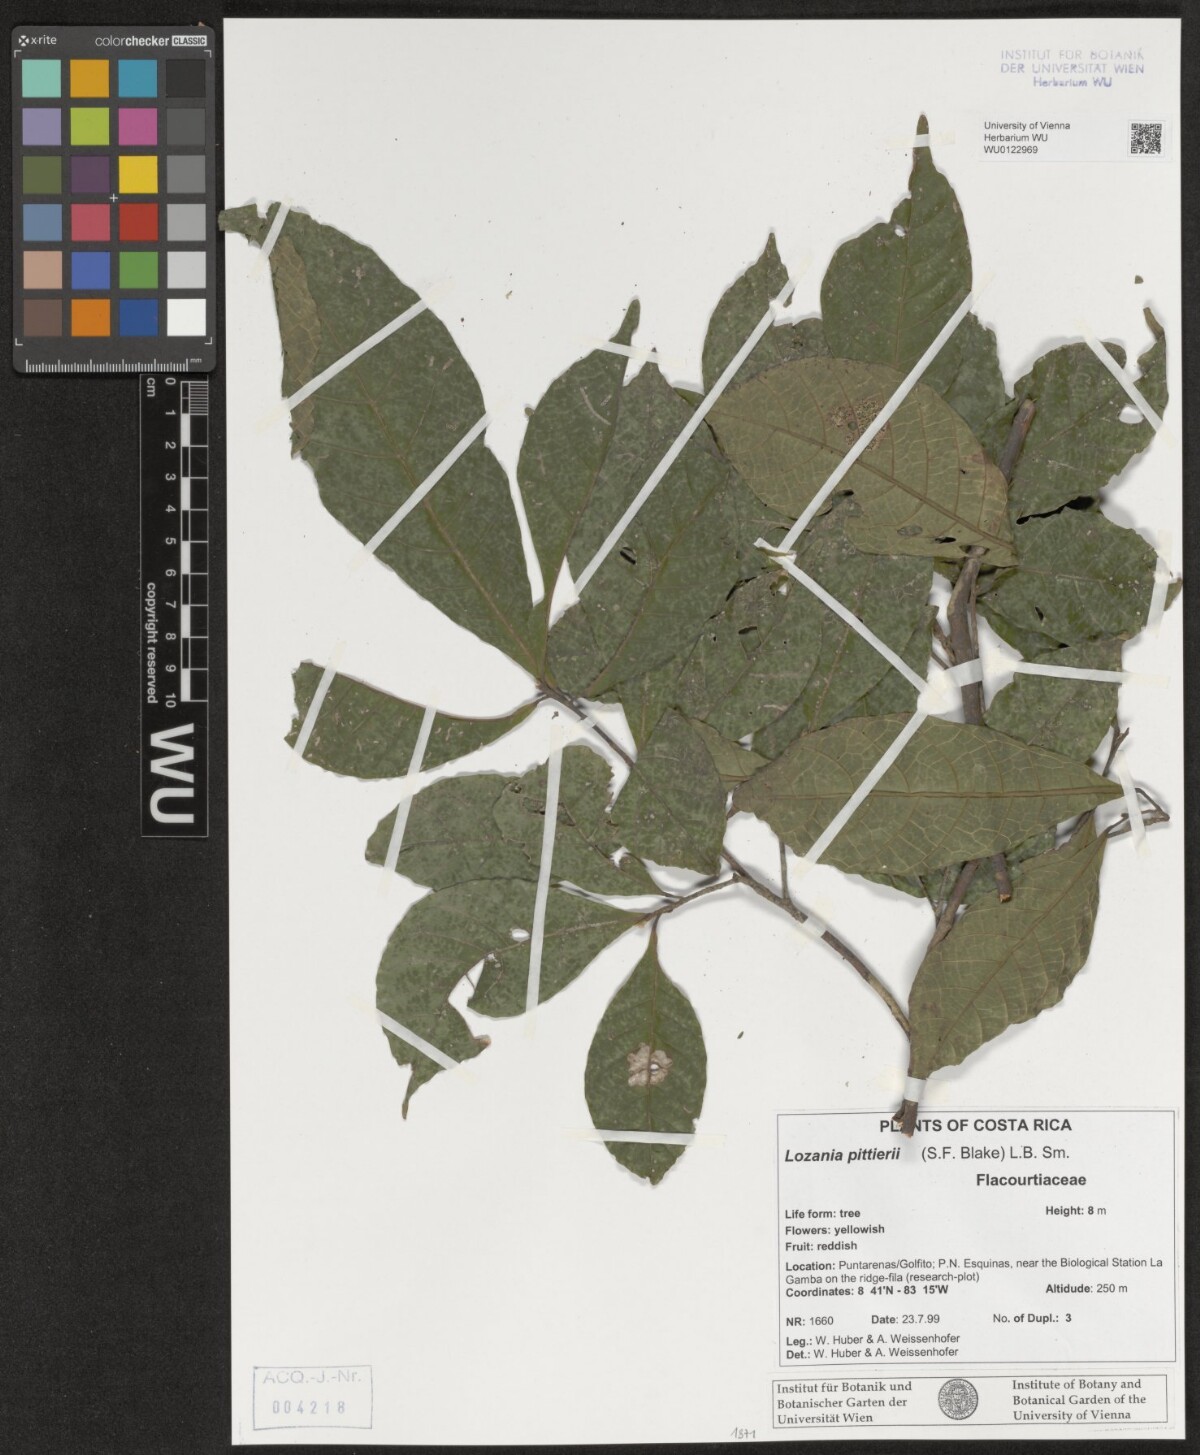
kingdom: Plantae
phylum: Tracheophyta
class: Magnoliopsida
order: Malpighiales
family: Lacistemataceae
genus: Lozania
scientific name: Lozania pittieri
